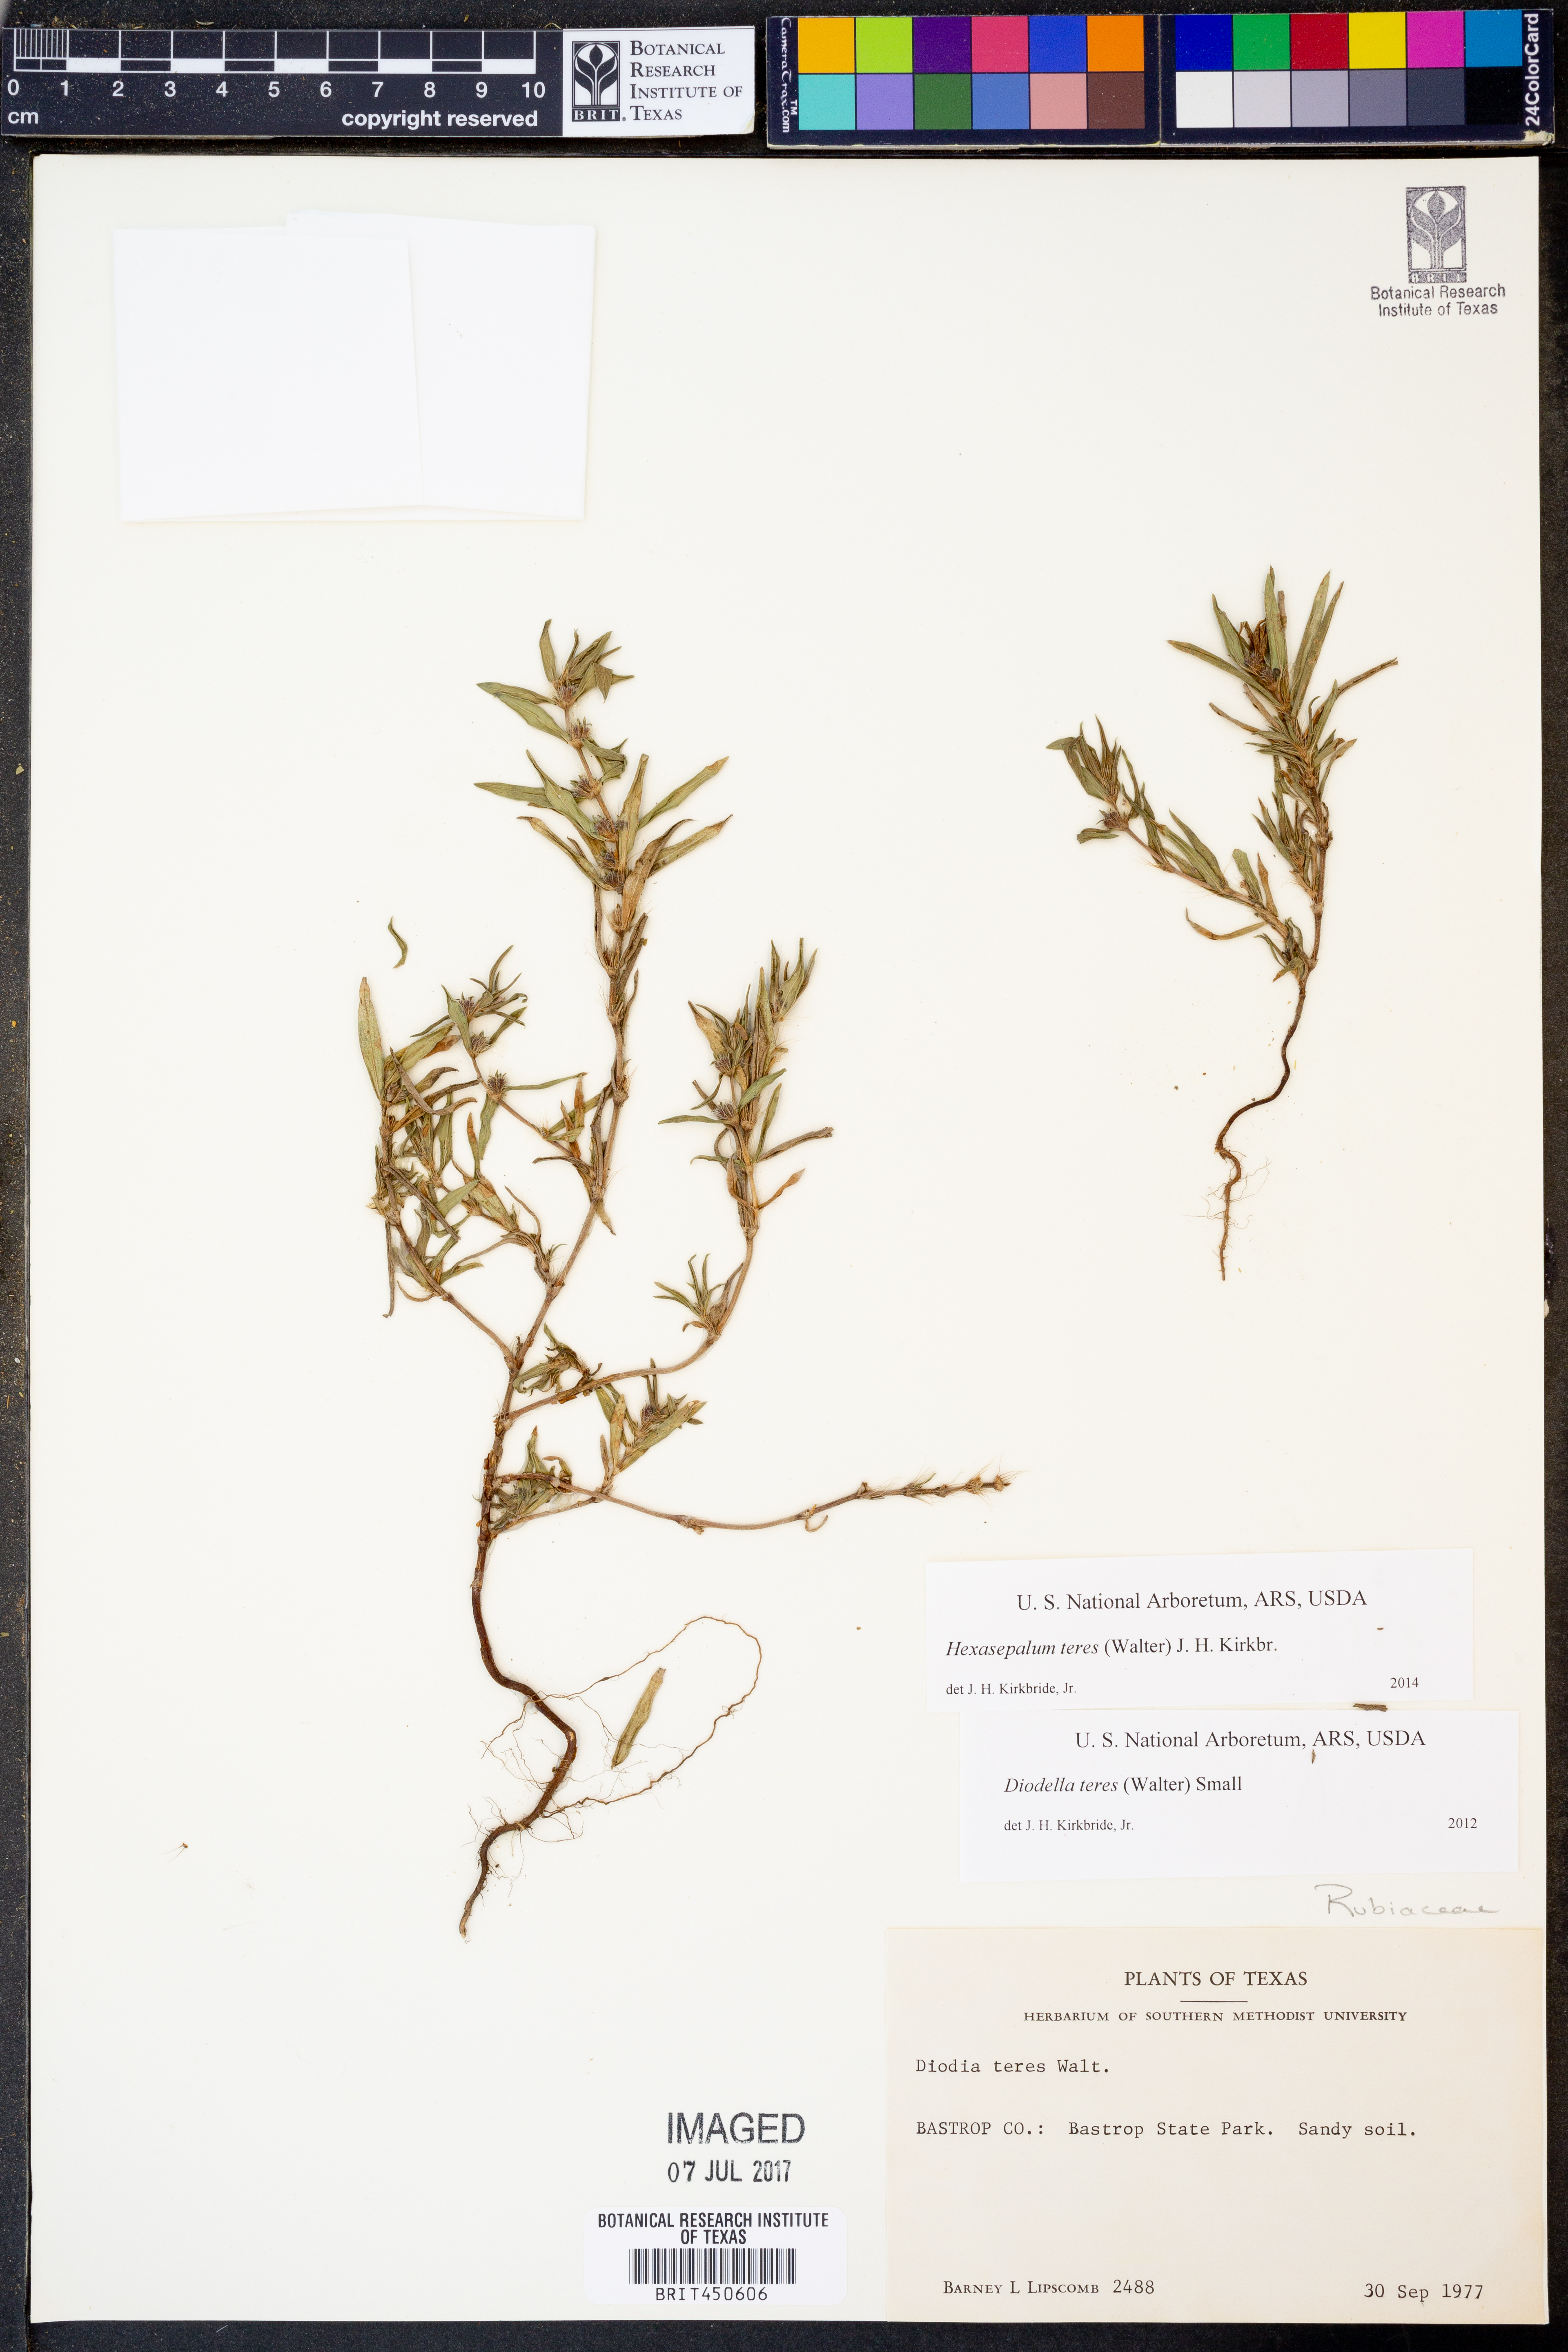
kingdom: Plantae
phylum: Tracheophyta
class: Magnoliopsida
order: Gentianales
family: Rubiaceae
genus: Hexasepalum
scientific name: Hexasepalum teres
